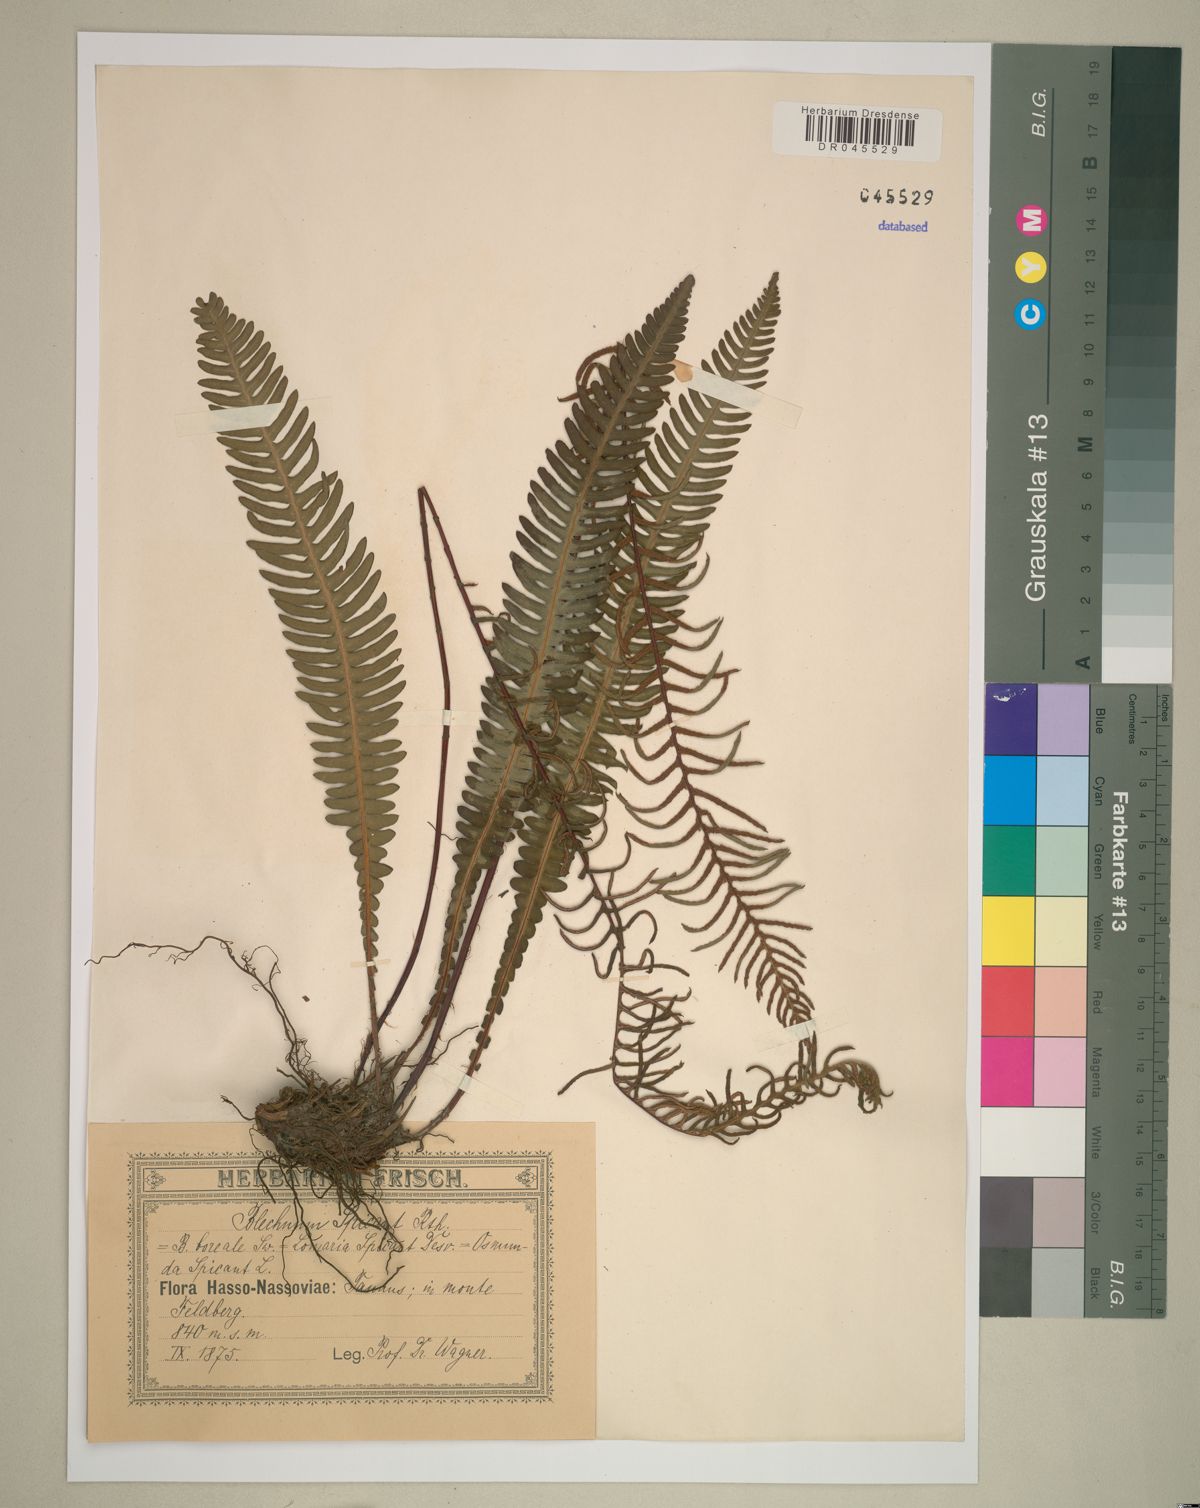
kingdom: Plantae
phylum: Tracheophyta
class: Polypodiopsida
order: Polypodiales
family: Blechnaceae
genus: Struthiopteris
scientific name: Struthiopteris spicant
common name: Deer fern
